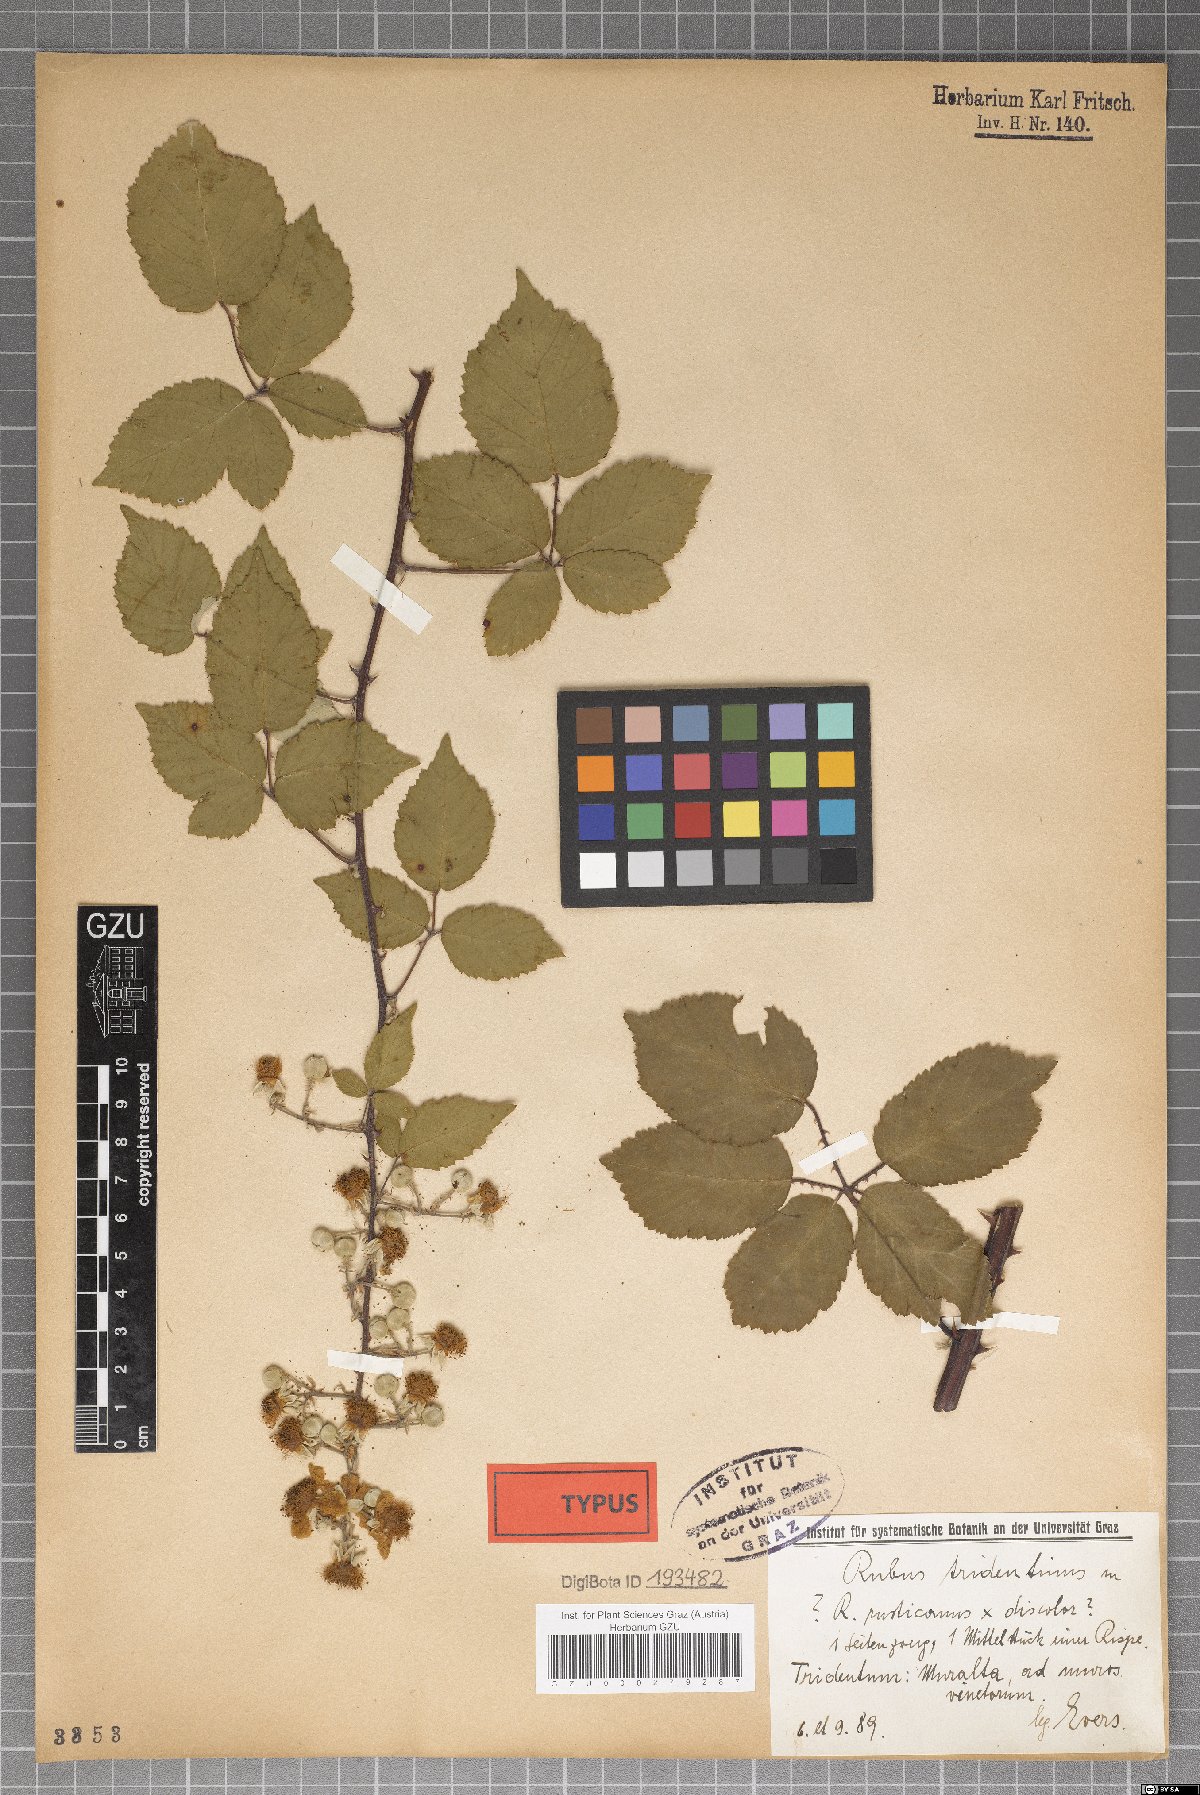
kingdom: Plantae
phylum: Tracheophyta
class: Magnoliopsida
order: Rosales
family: Rosaceae
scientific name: Rosaceae
